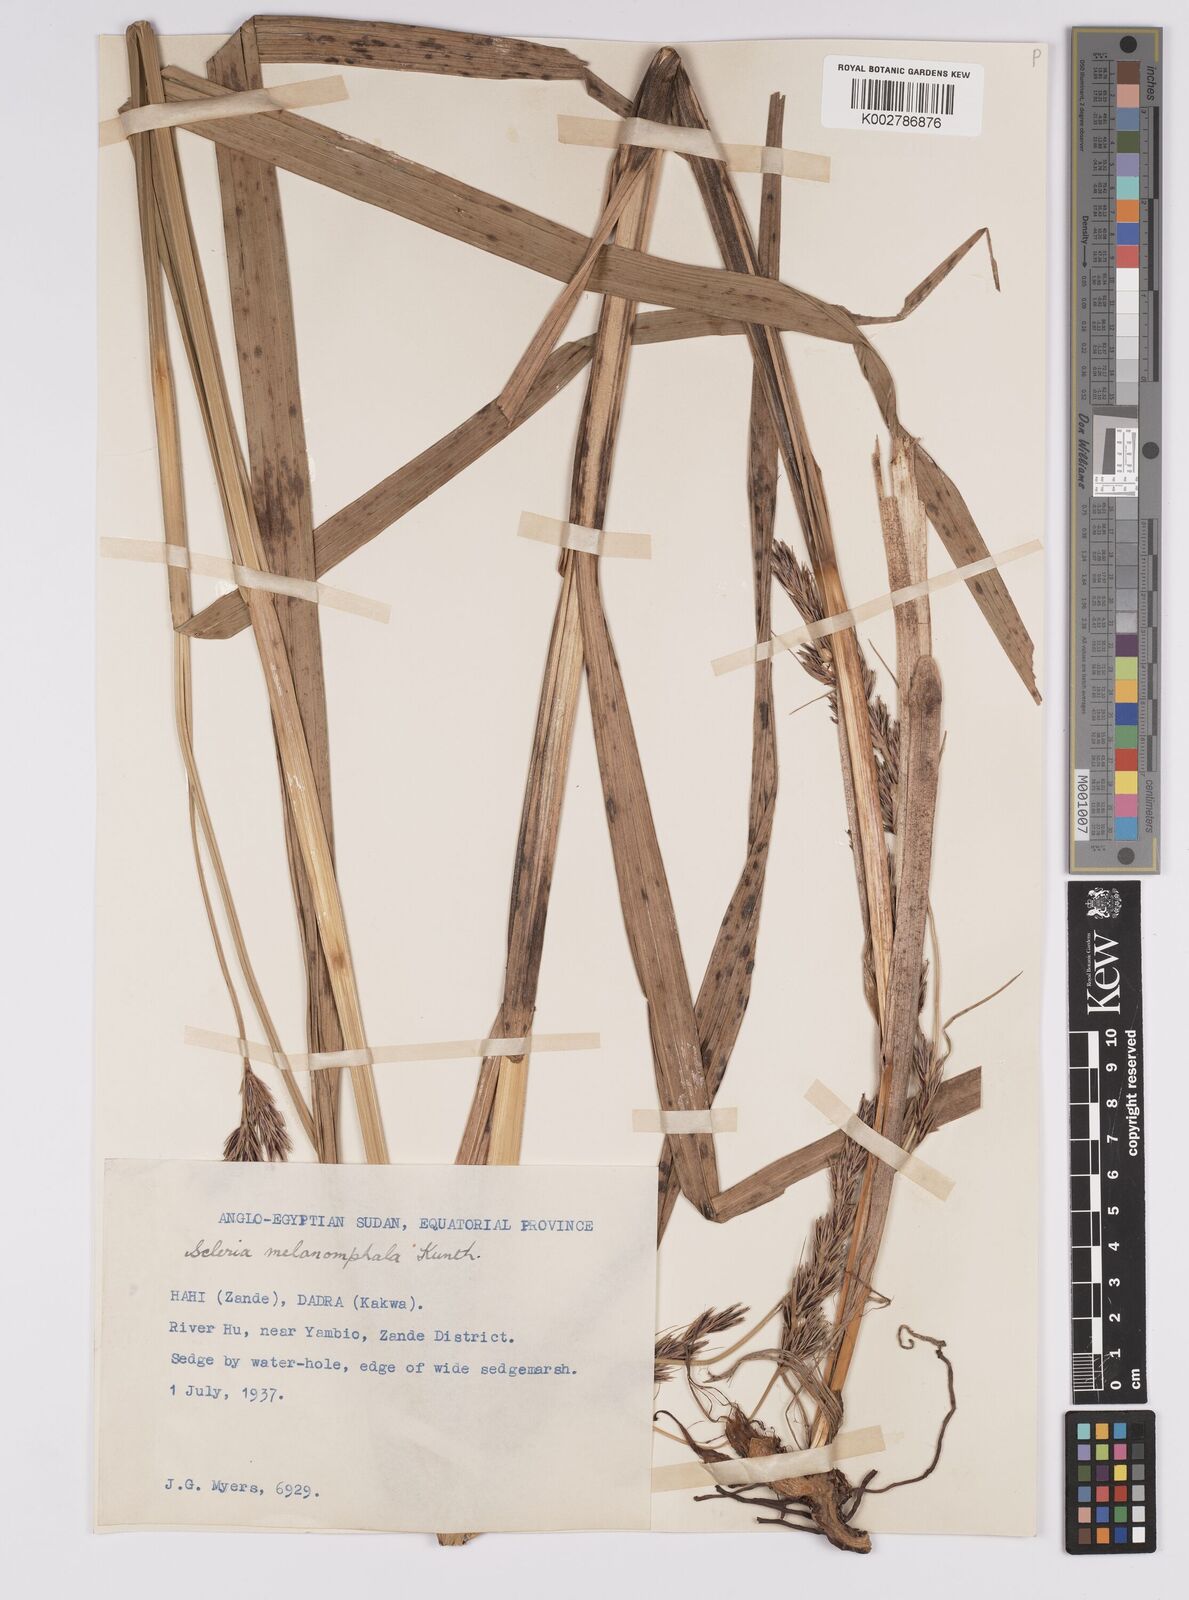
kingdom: Plantae
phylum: Tracheophyta
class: Liliopsida
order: Poales
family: Cyperaceae
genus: Scleria
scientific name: Scleria melanomphala
